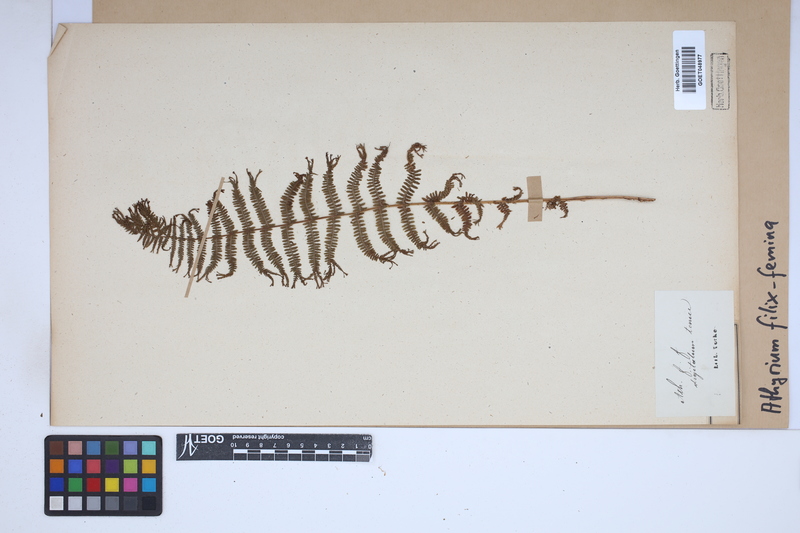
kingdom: Plantae
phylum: Tracheophyta
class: Polypodiopsida
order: Polypodiales
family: Athyriaceae
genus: Athyrium
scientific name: Athyrium filix-femina
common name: Lady fern
